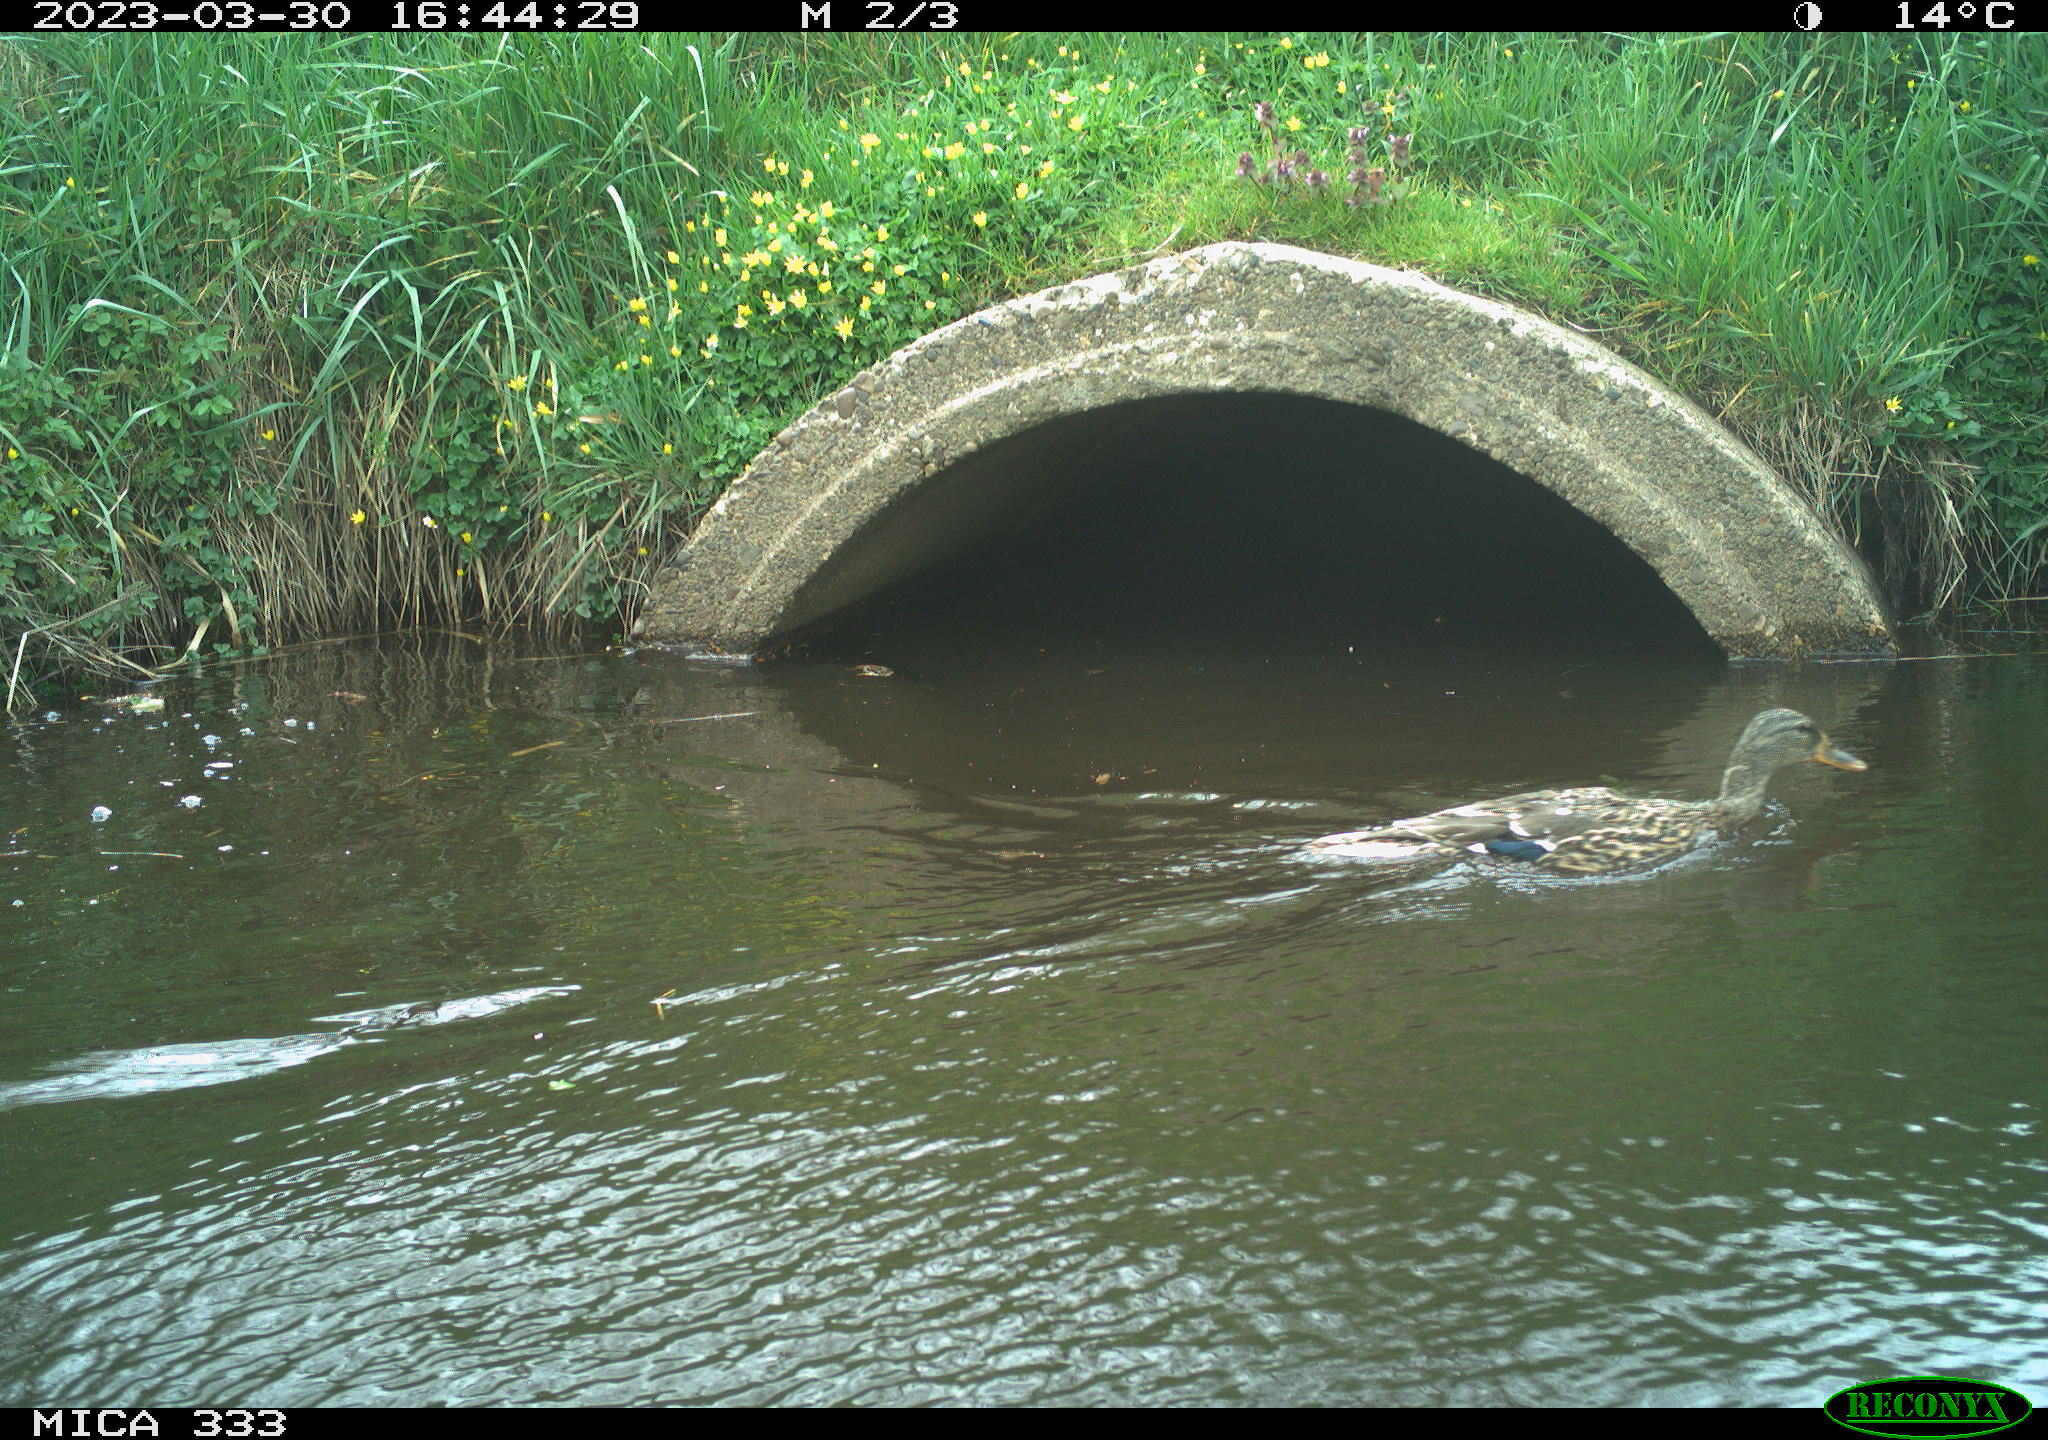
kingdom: Animalia
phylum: Chordata
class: Aves
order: Anseriformes
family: Anatidae
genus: Anas
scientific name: Anas platyrhynchos
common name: Mallard
